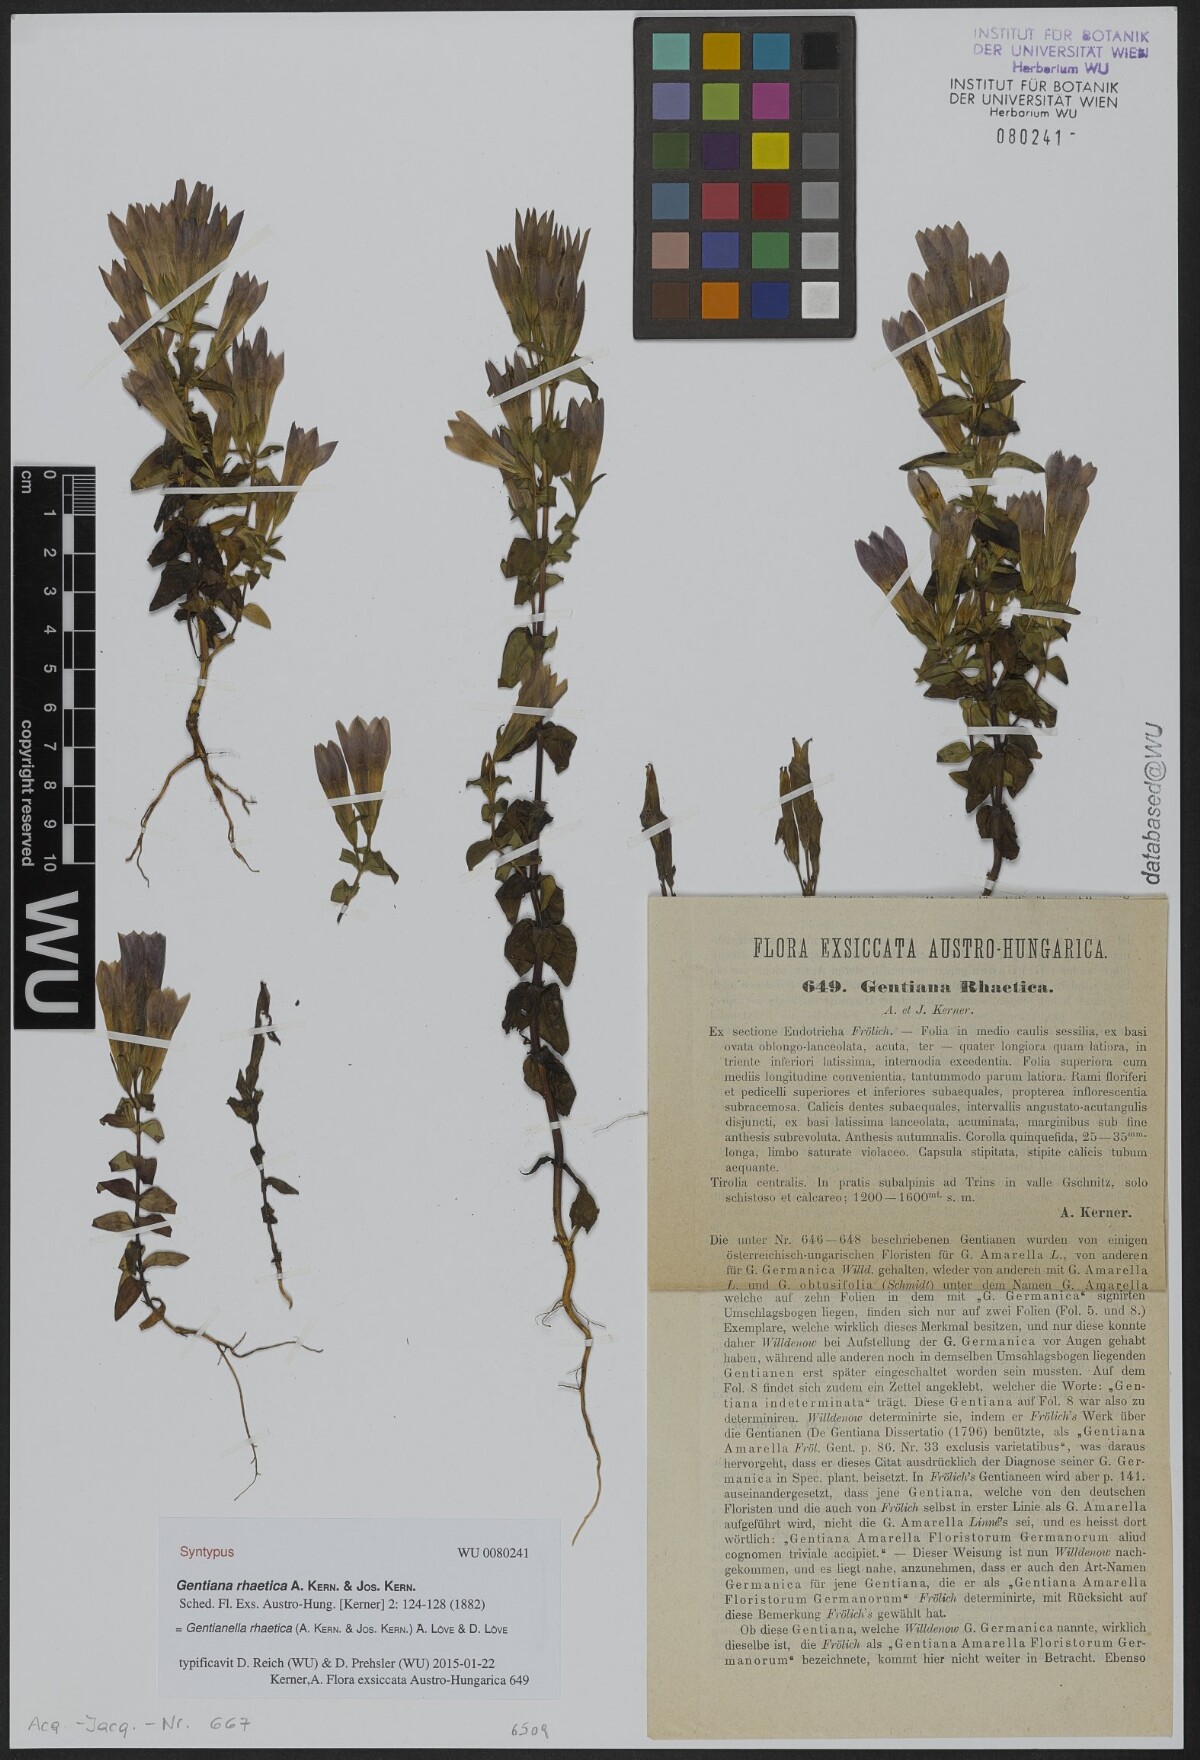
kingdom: Plantae
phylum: Tracheophyta
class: Magnoliopsida
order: Gentianales
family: Gentianaceae
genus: Gentianella
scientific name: Gentianella rhaetica
